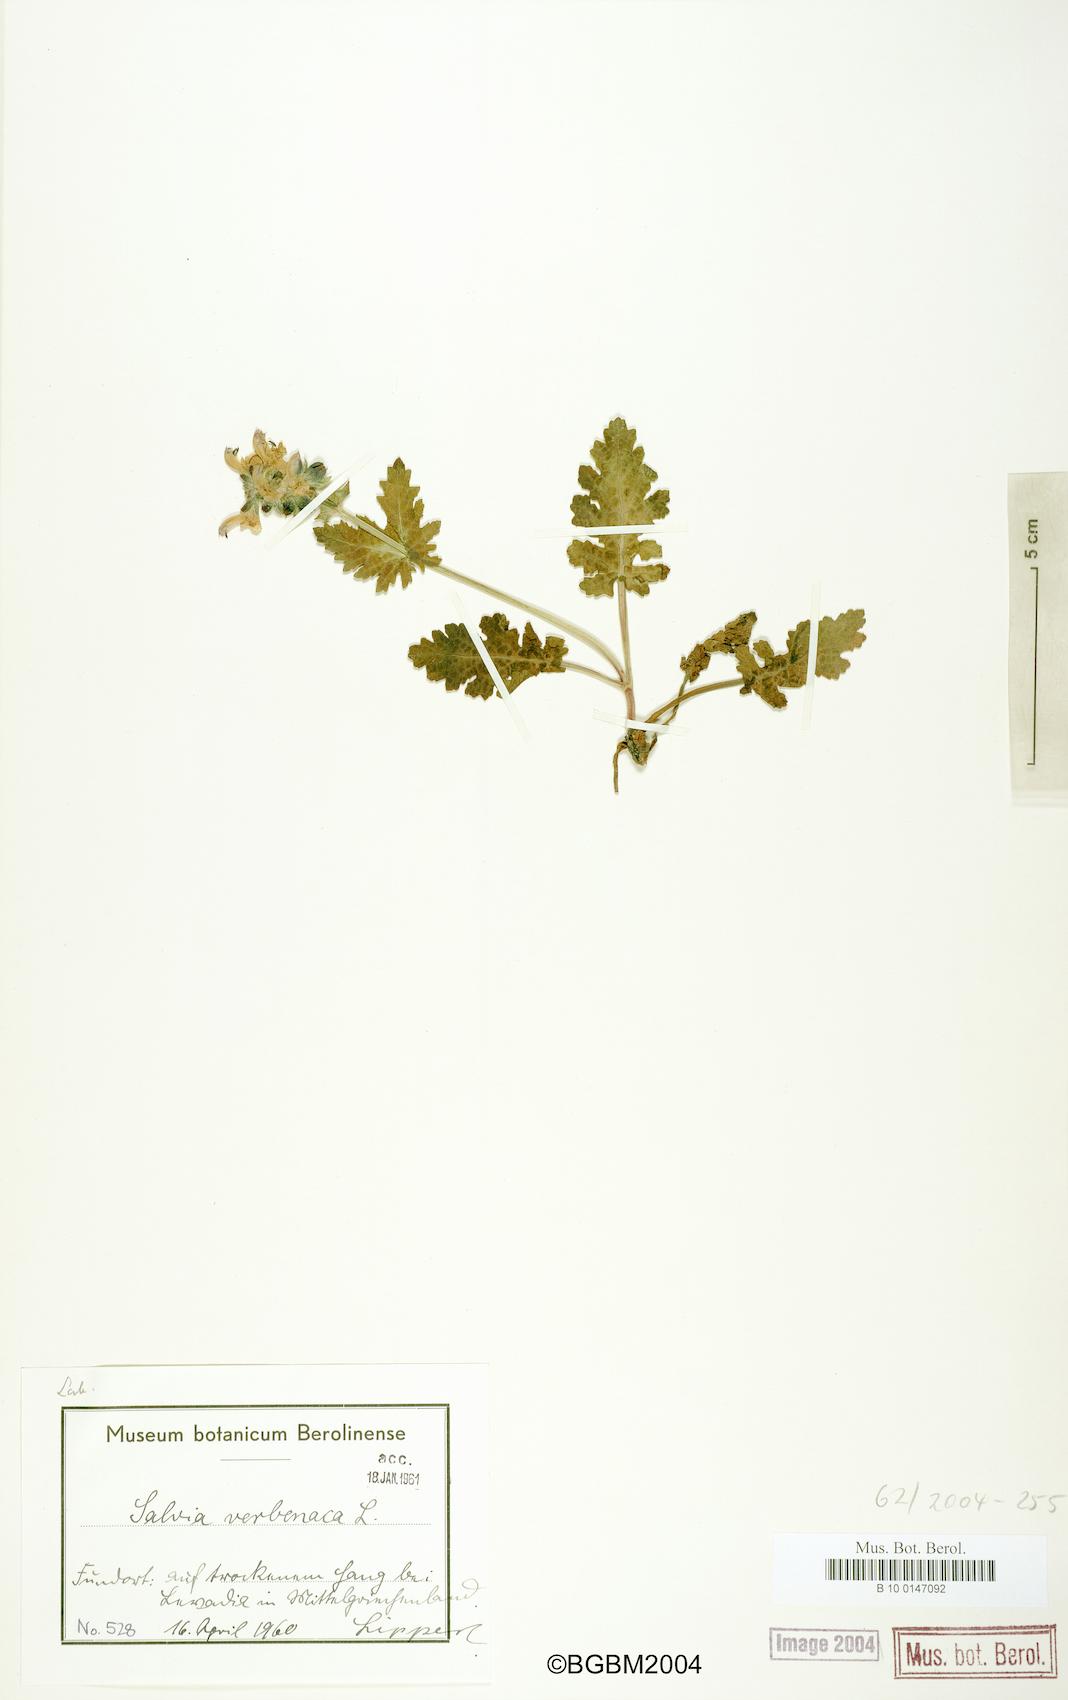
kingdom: Plantae
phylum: Tracheophyta
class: Magnoliopsida
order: Lamiales
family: Lamiaceae
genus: Salvia
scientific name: Salvia verbenaca
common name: Wild clary
